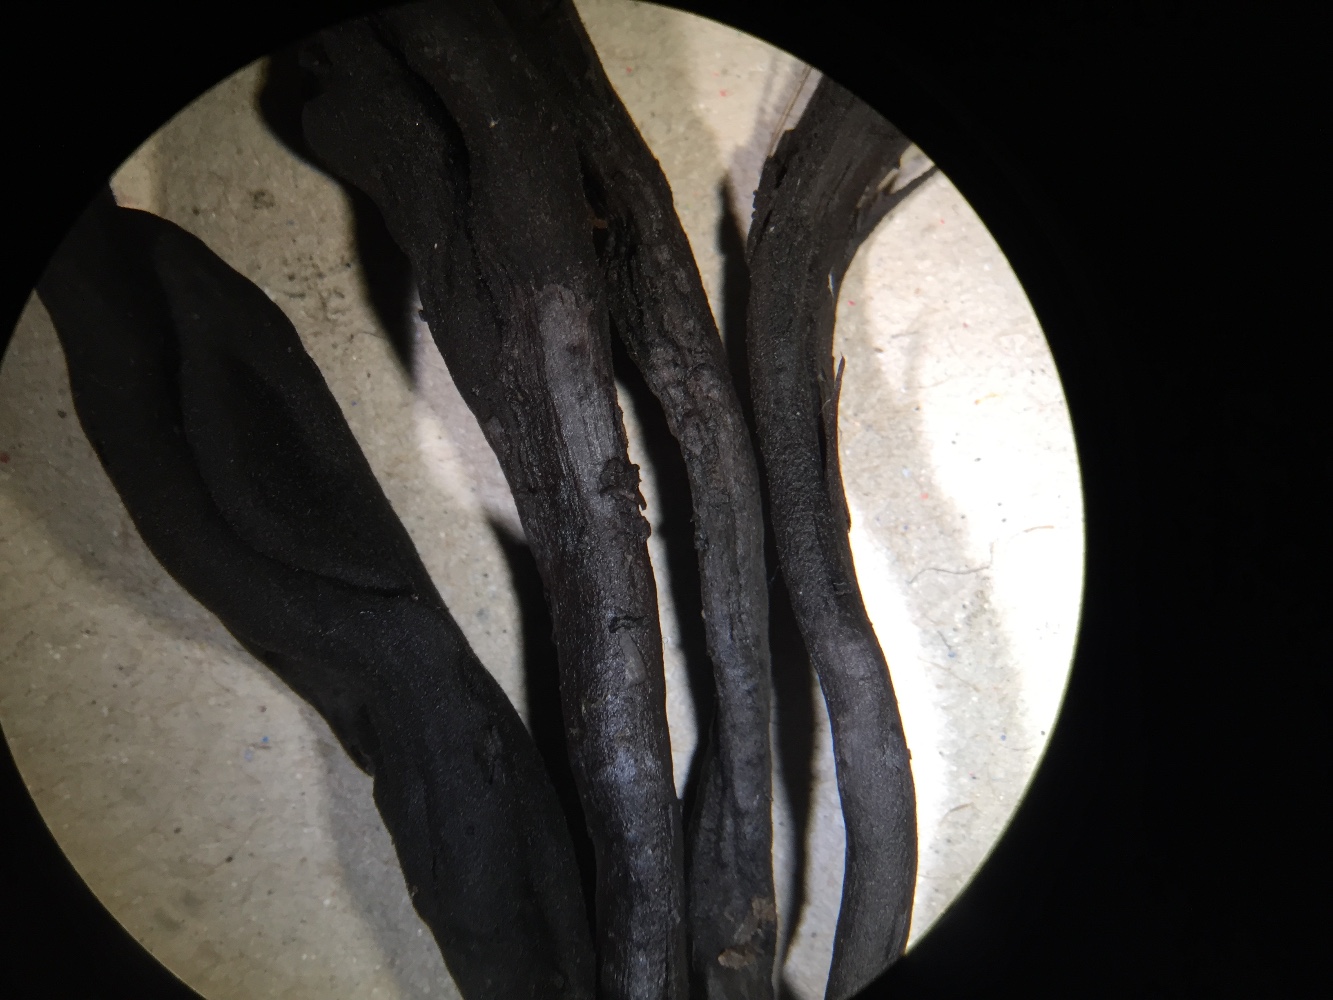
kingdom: Fungi
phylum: Ascomycota
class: Geoglossomycetes
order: Geoglossales
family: Geoglossaceae
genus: Geoglossum
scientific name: Geoglossum umbratile
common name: slank jordtunge
